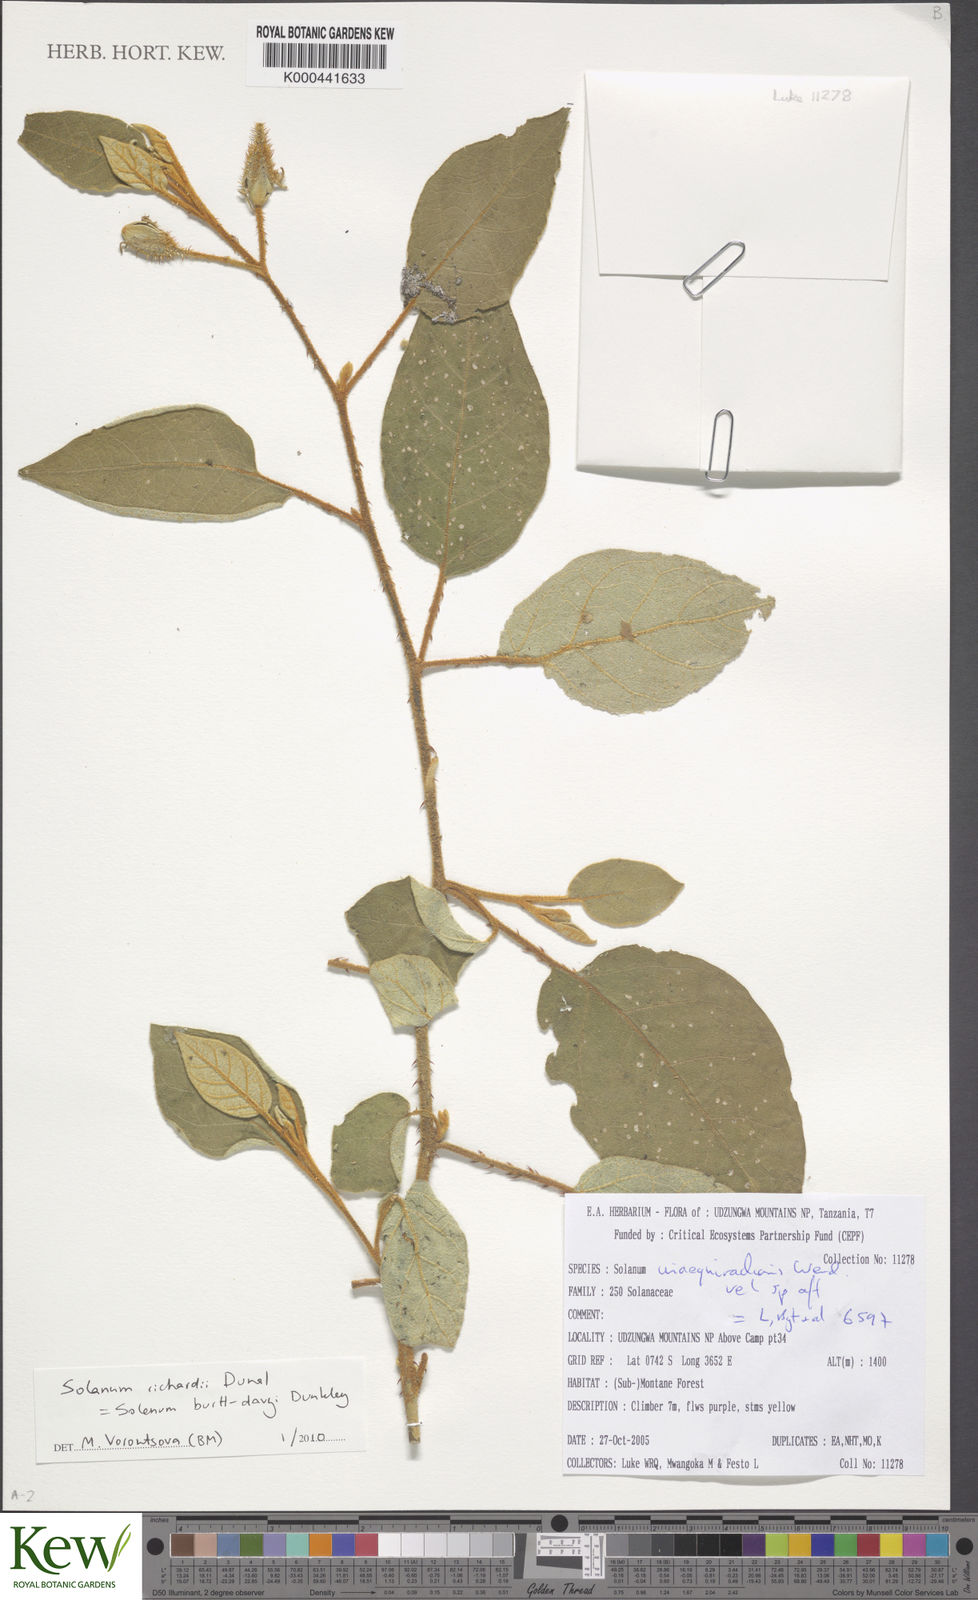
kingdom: Plantae
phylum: Tracheophyta
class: Magnoliopsida
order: Solanales
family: Solanaceae
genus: Solanum
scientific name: Solanum richardii
